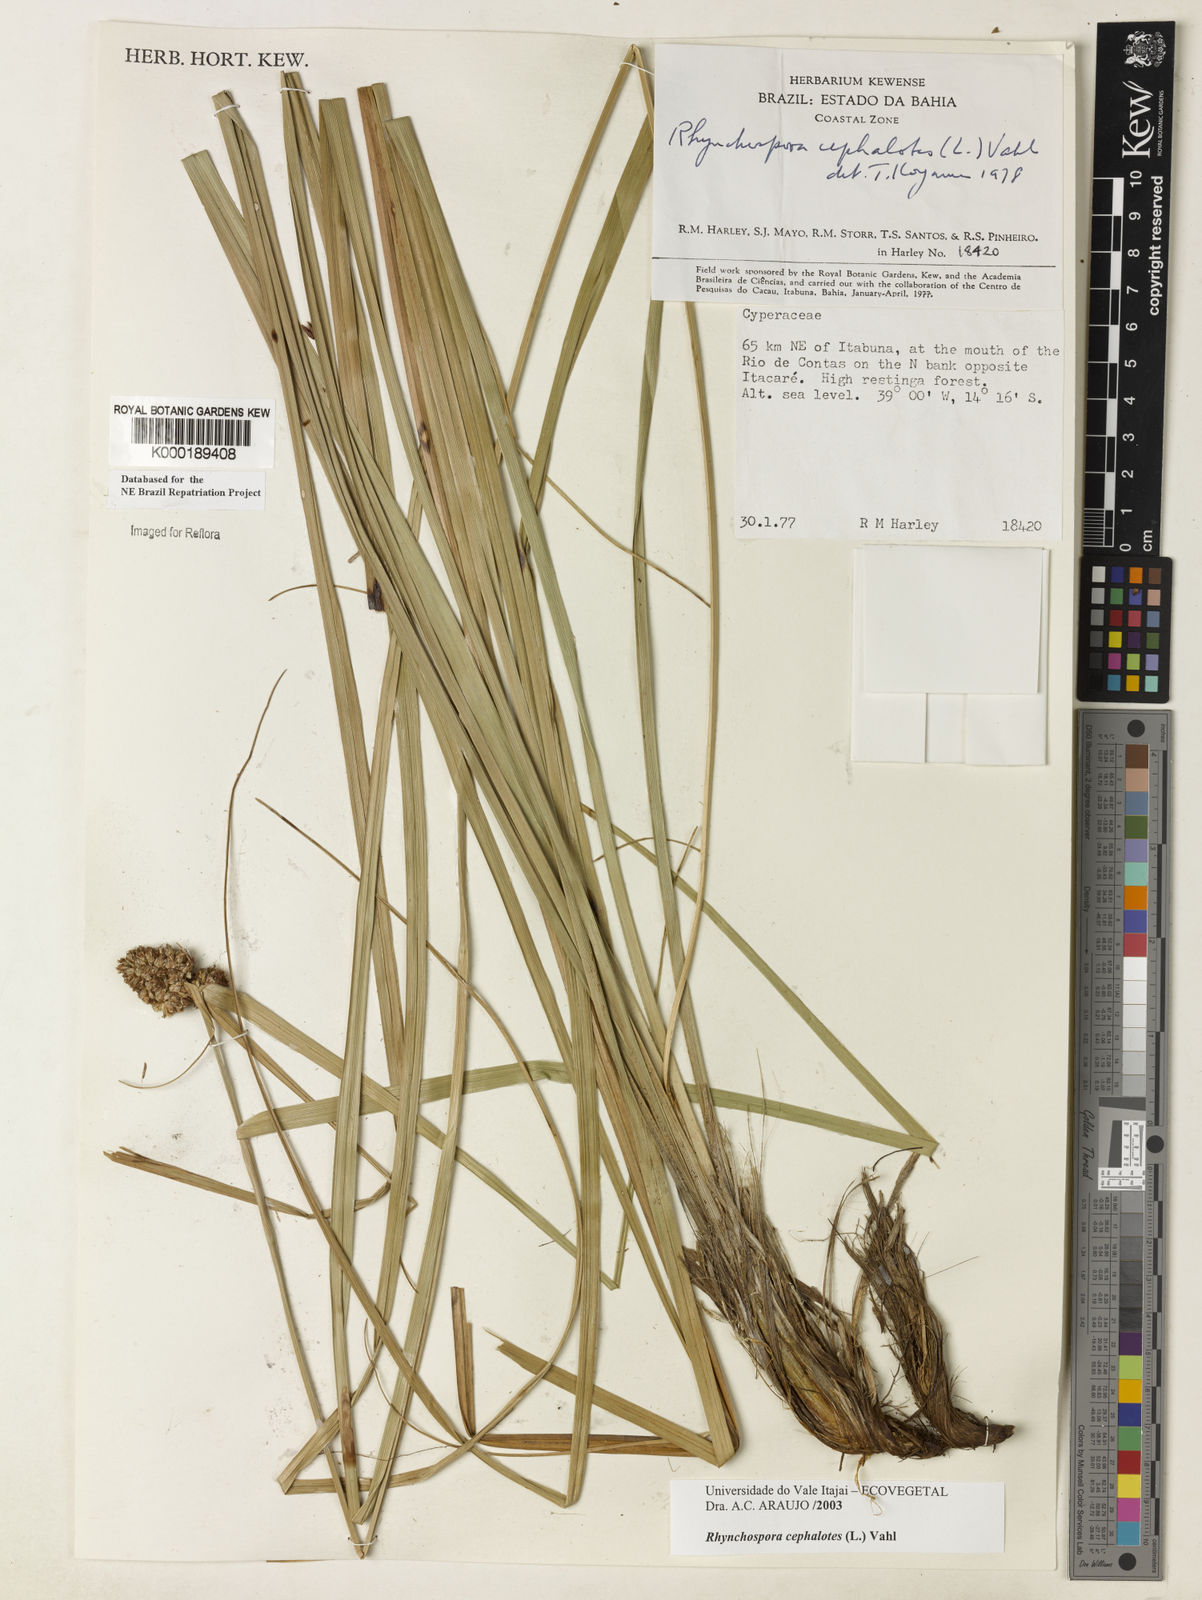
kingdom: Plantae
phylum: Tracheophyta
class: Liliopsida
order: Poales
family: Cyperaceae
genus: Rhynchospora
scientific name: Rhynchospora cephalotes
